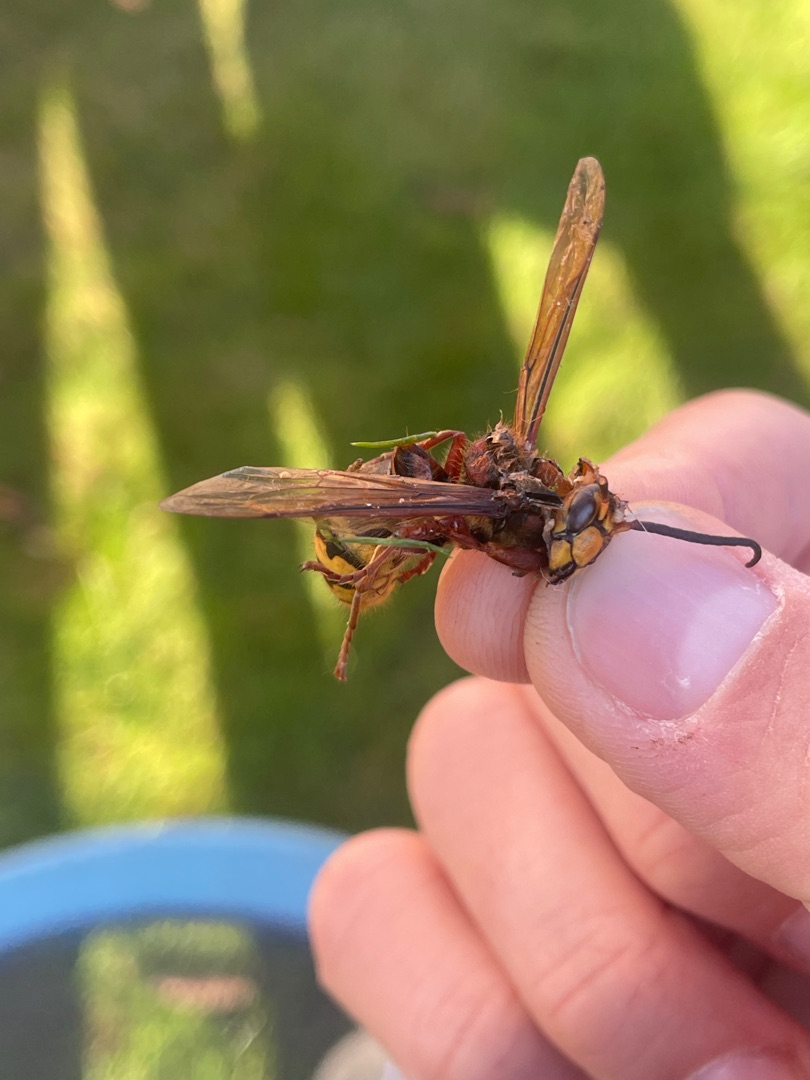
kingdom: Animalia
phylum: Arthropoda
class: Insecta
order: Hymenoptera
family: Vespidae
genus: Vespa
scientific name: Vespa crabro
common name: Stor gedehams
